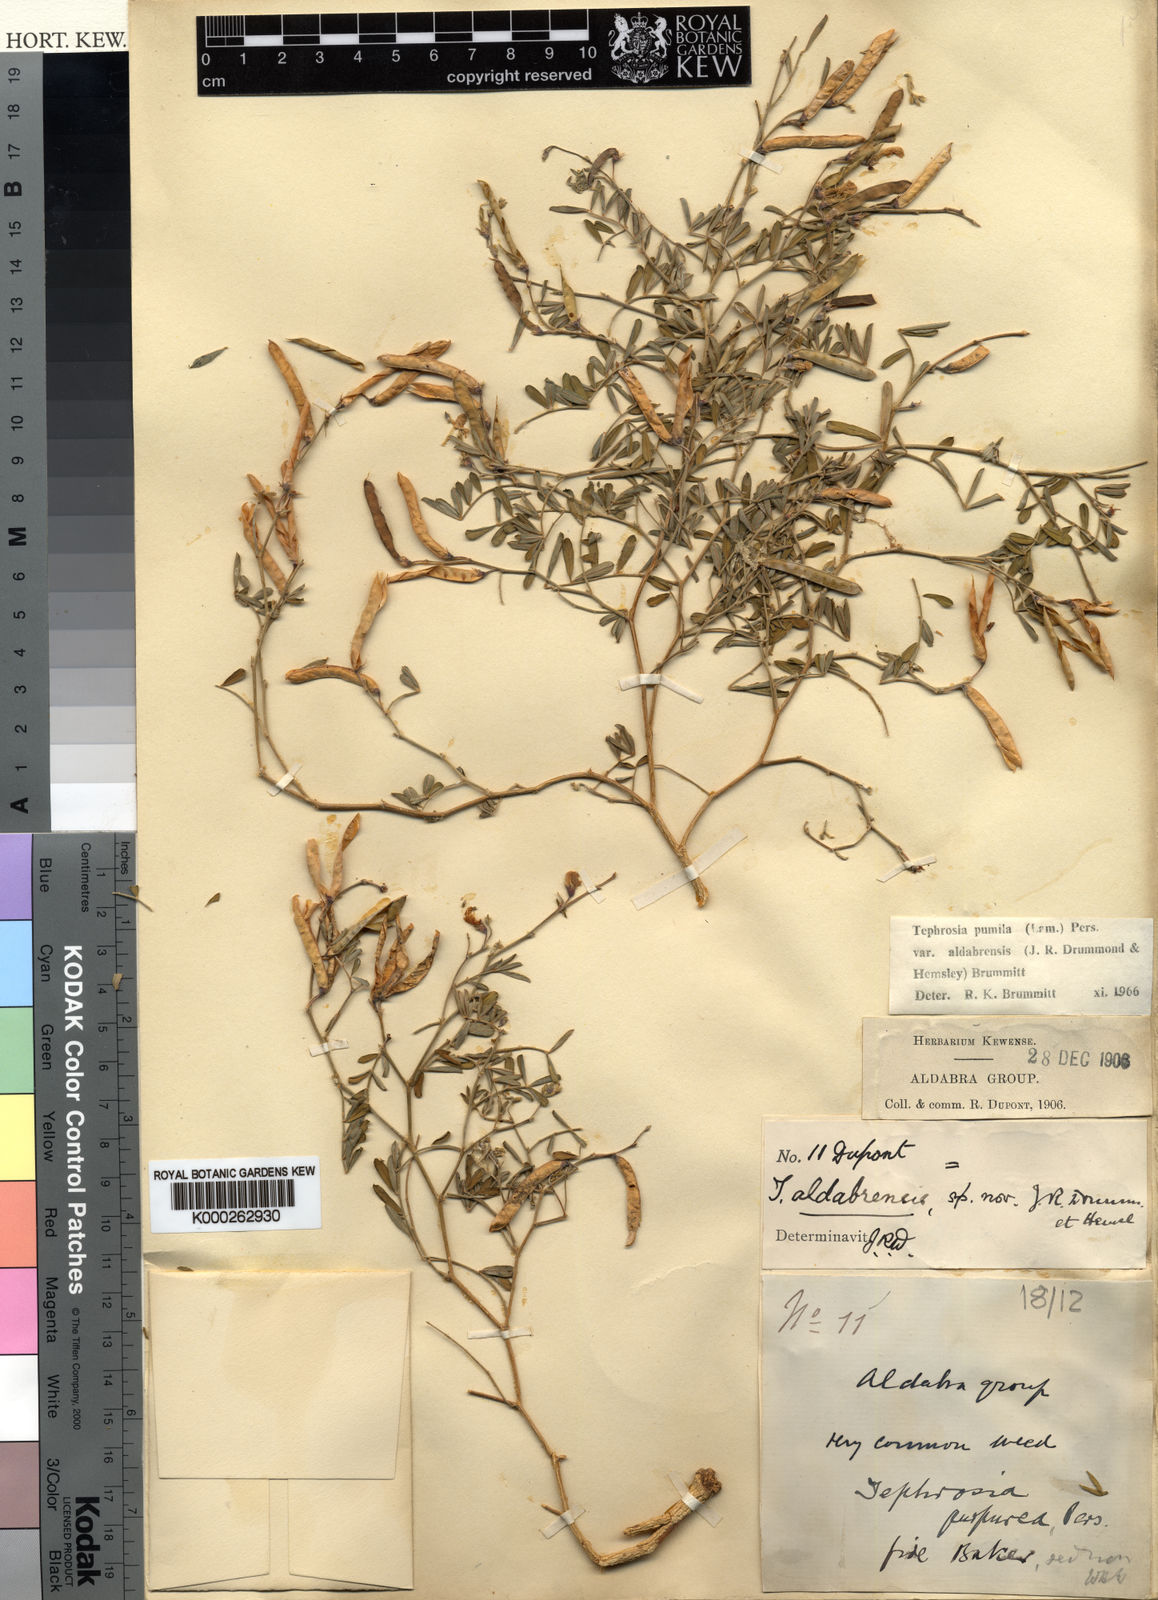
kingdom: Plantae
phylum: Tracheophyta
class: Magnoliopsida
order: Fabales
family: Fabaceae
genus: Tephrosia
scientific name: Tephrosia pumila
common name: Indigo sauvage
